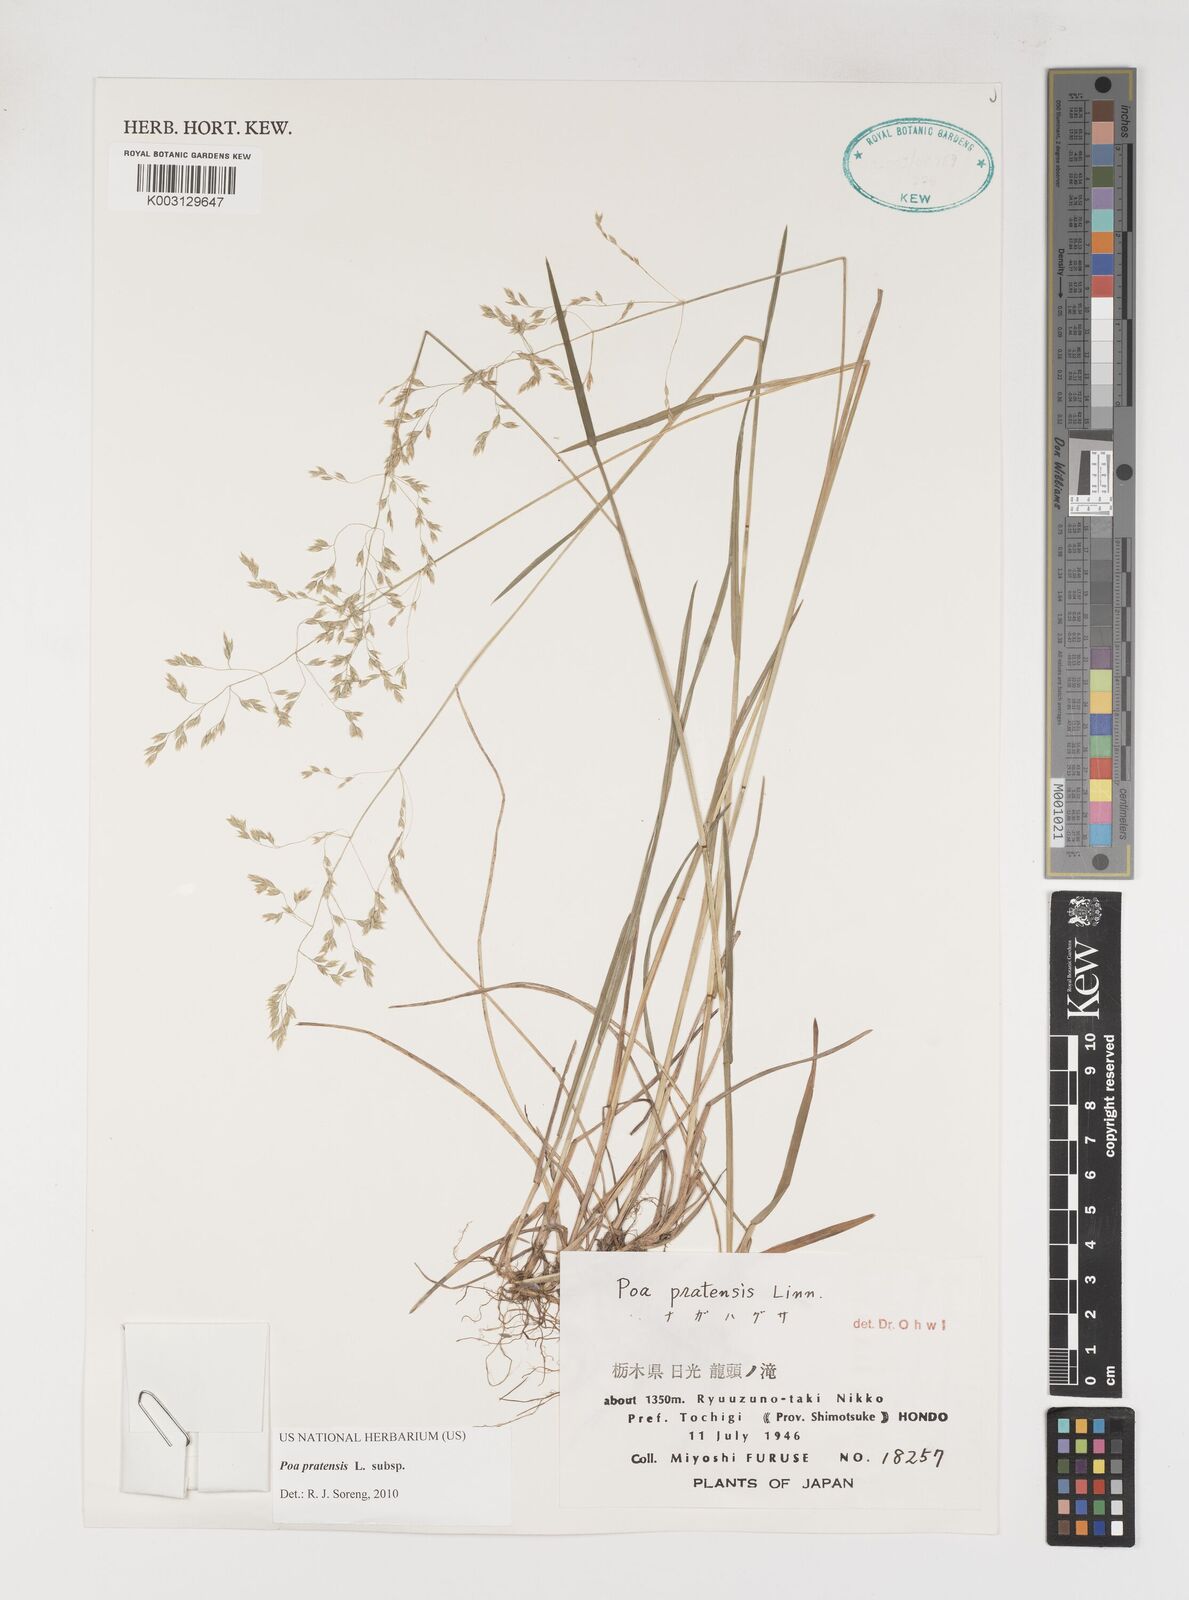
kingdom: Plantae
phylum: Tracheophyta
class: Liliopsida
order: Poales
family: Poaceae
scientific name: Poaceae
